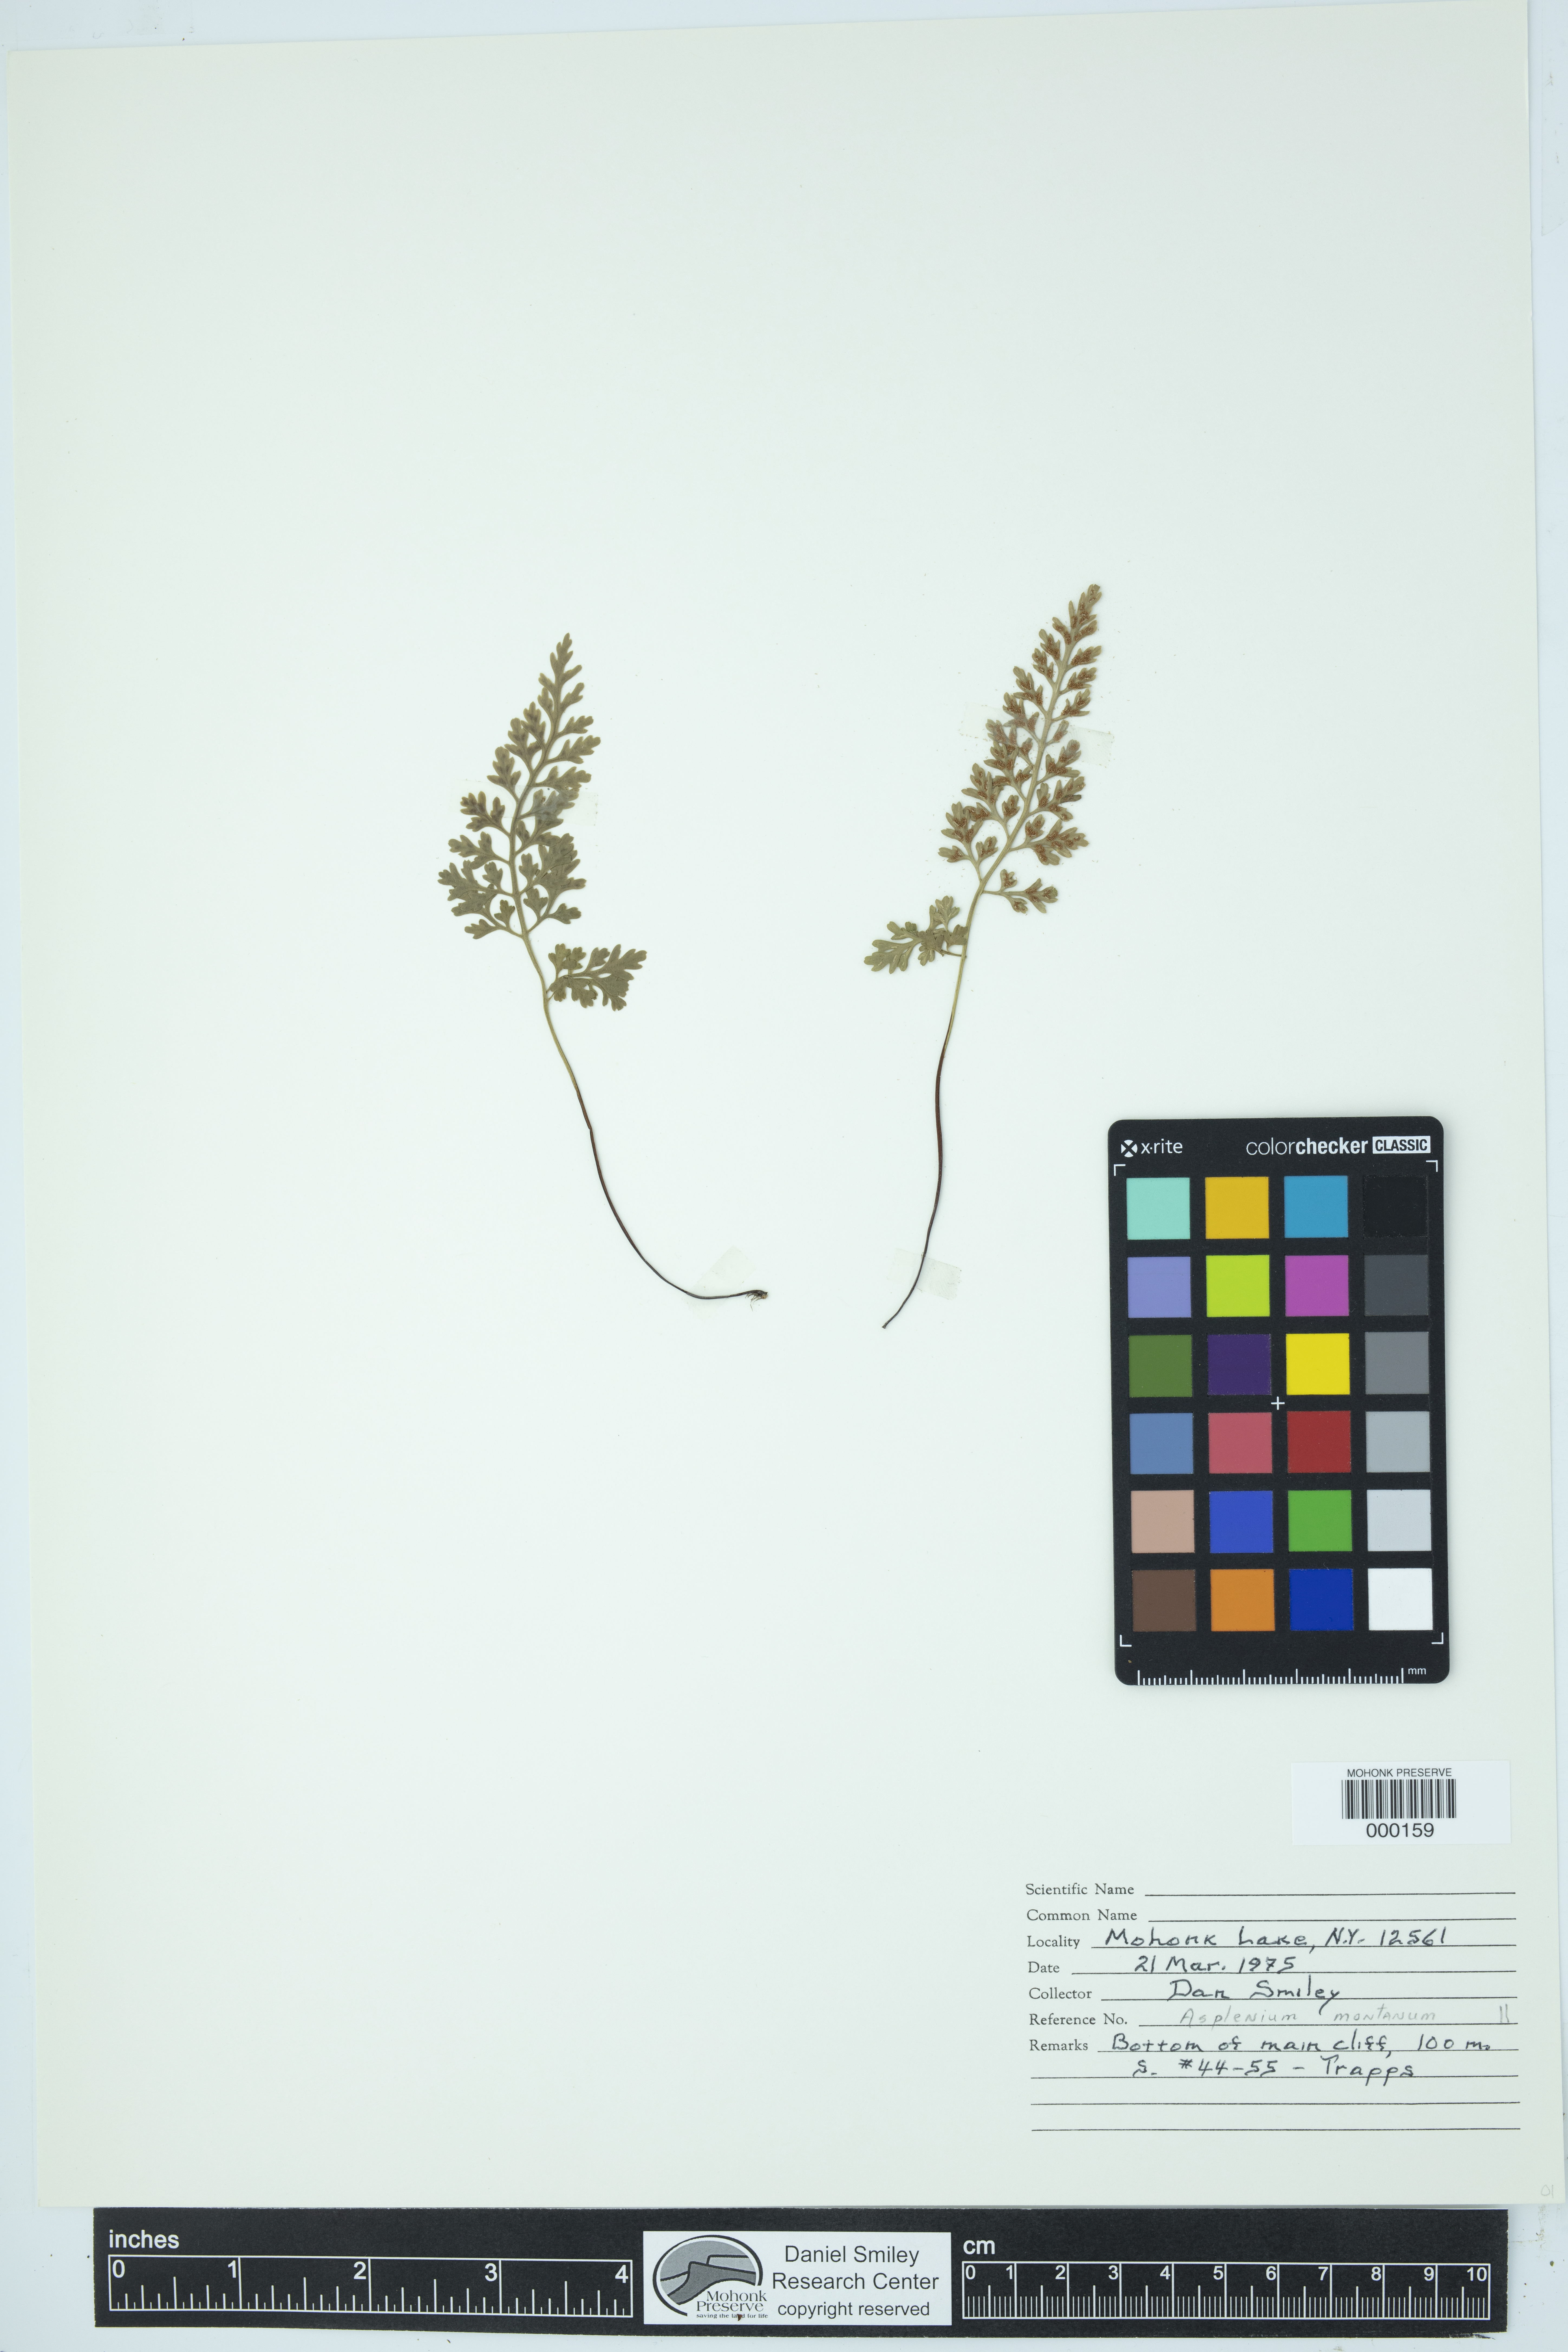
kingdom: Plantae
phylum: Tracheophyta
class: Polypodiopsida
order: Polypodiales
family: Aspleniaceae
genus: Asplenium
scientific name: Asplenium montanum
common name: Mountain spleenwort
